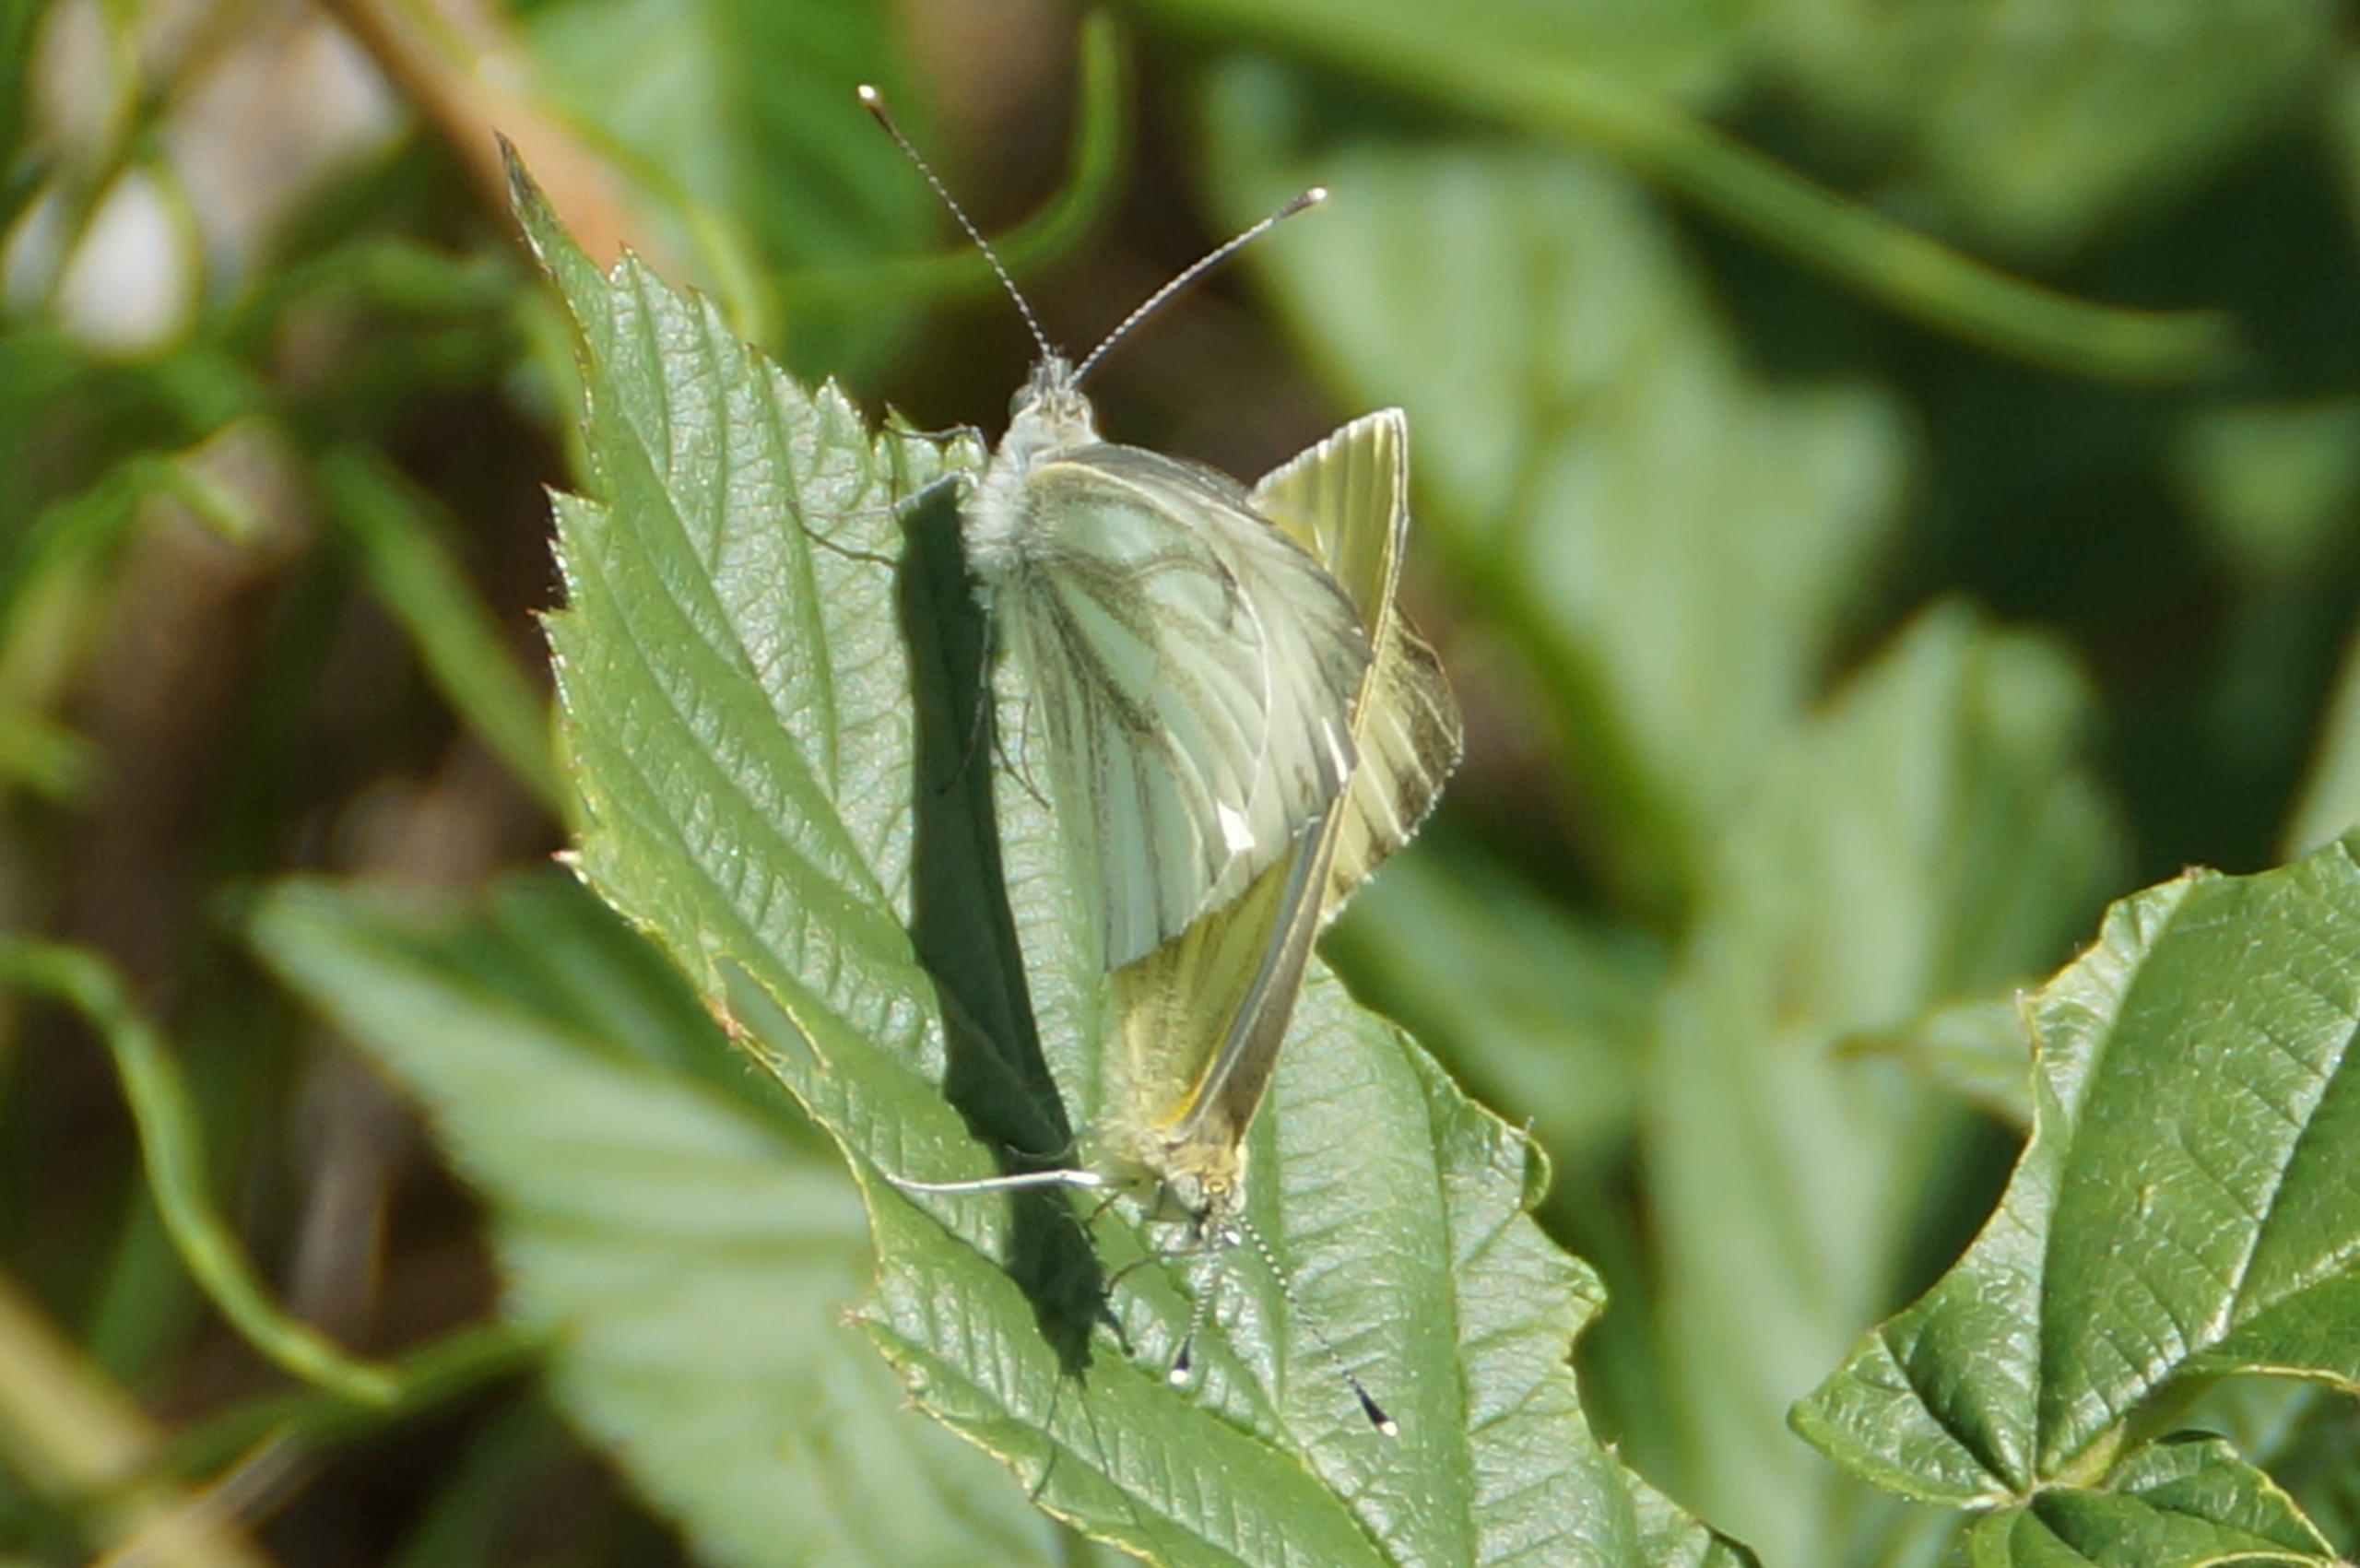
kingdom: Animalia
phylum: Arthropoda
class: Insecta
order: Lepidoptera
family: Pieridae
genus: Pieris
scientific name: Pieris napi
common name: Grønåret kålsommerfugl
